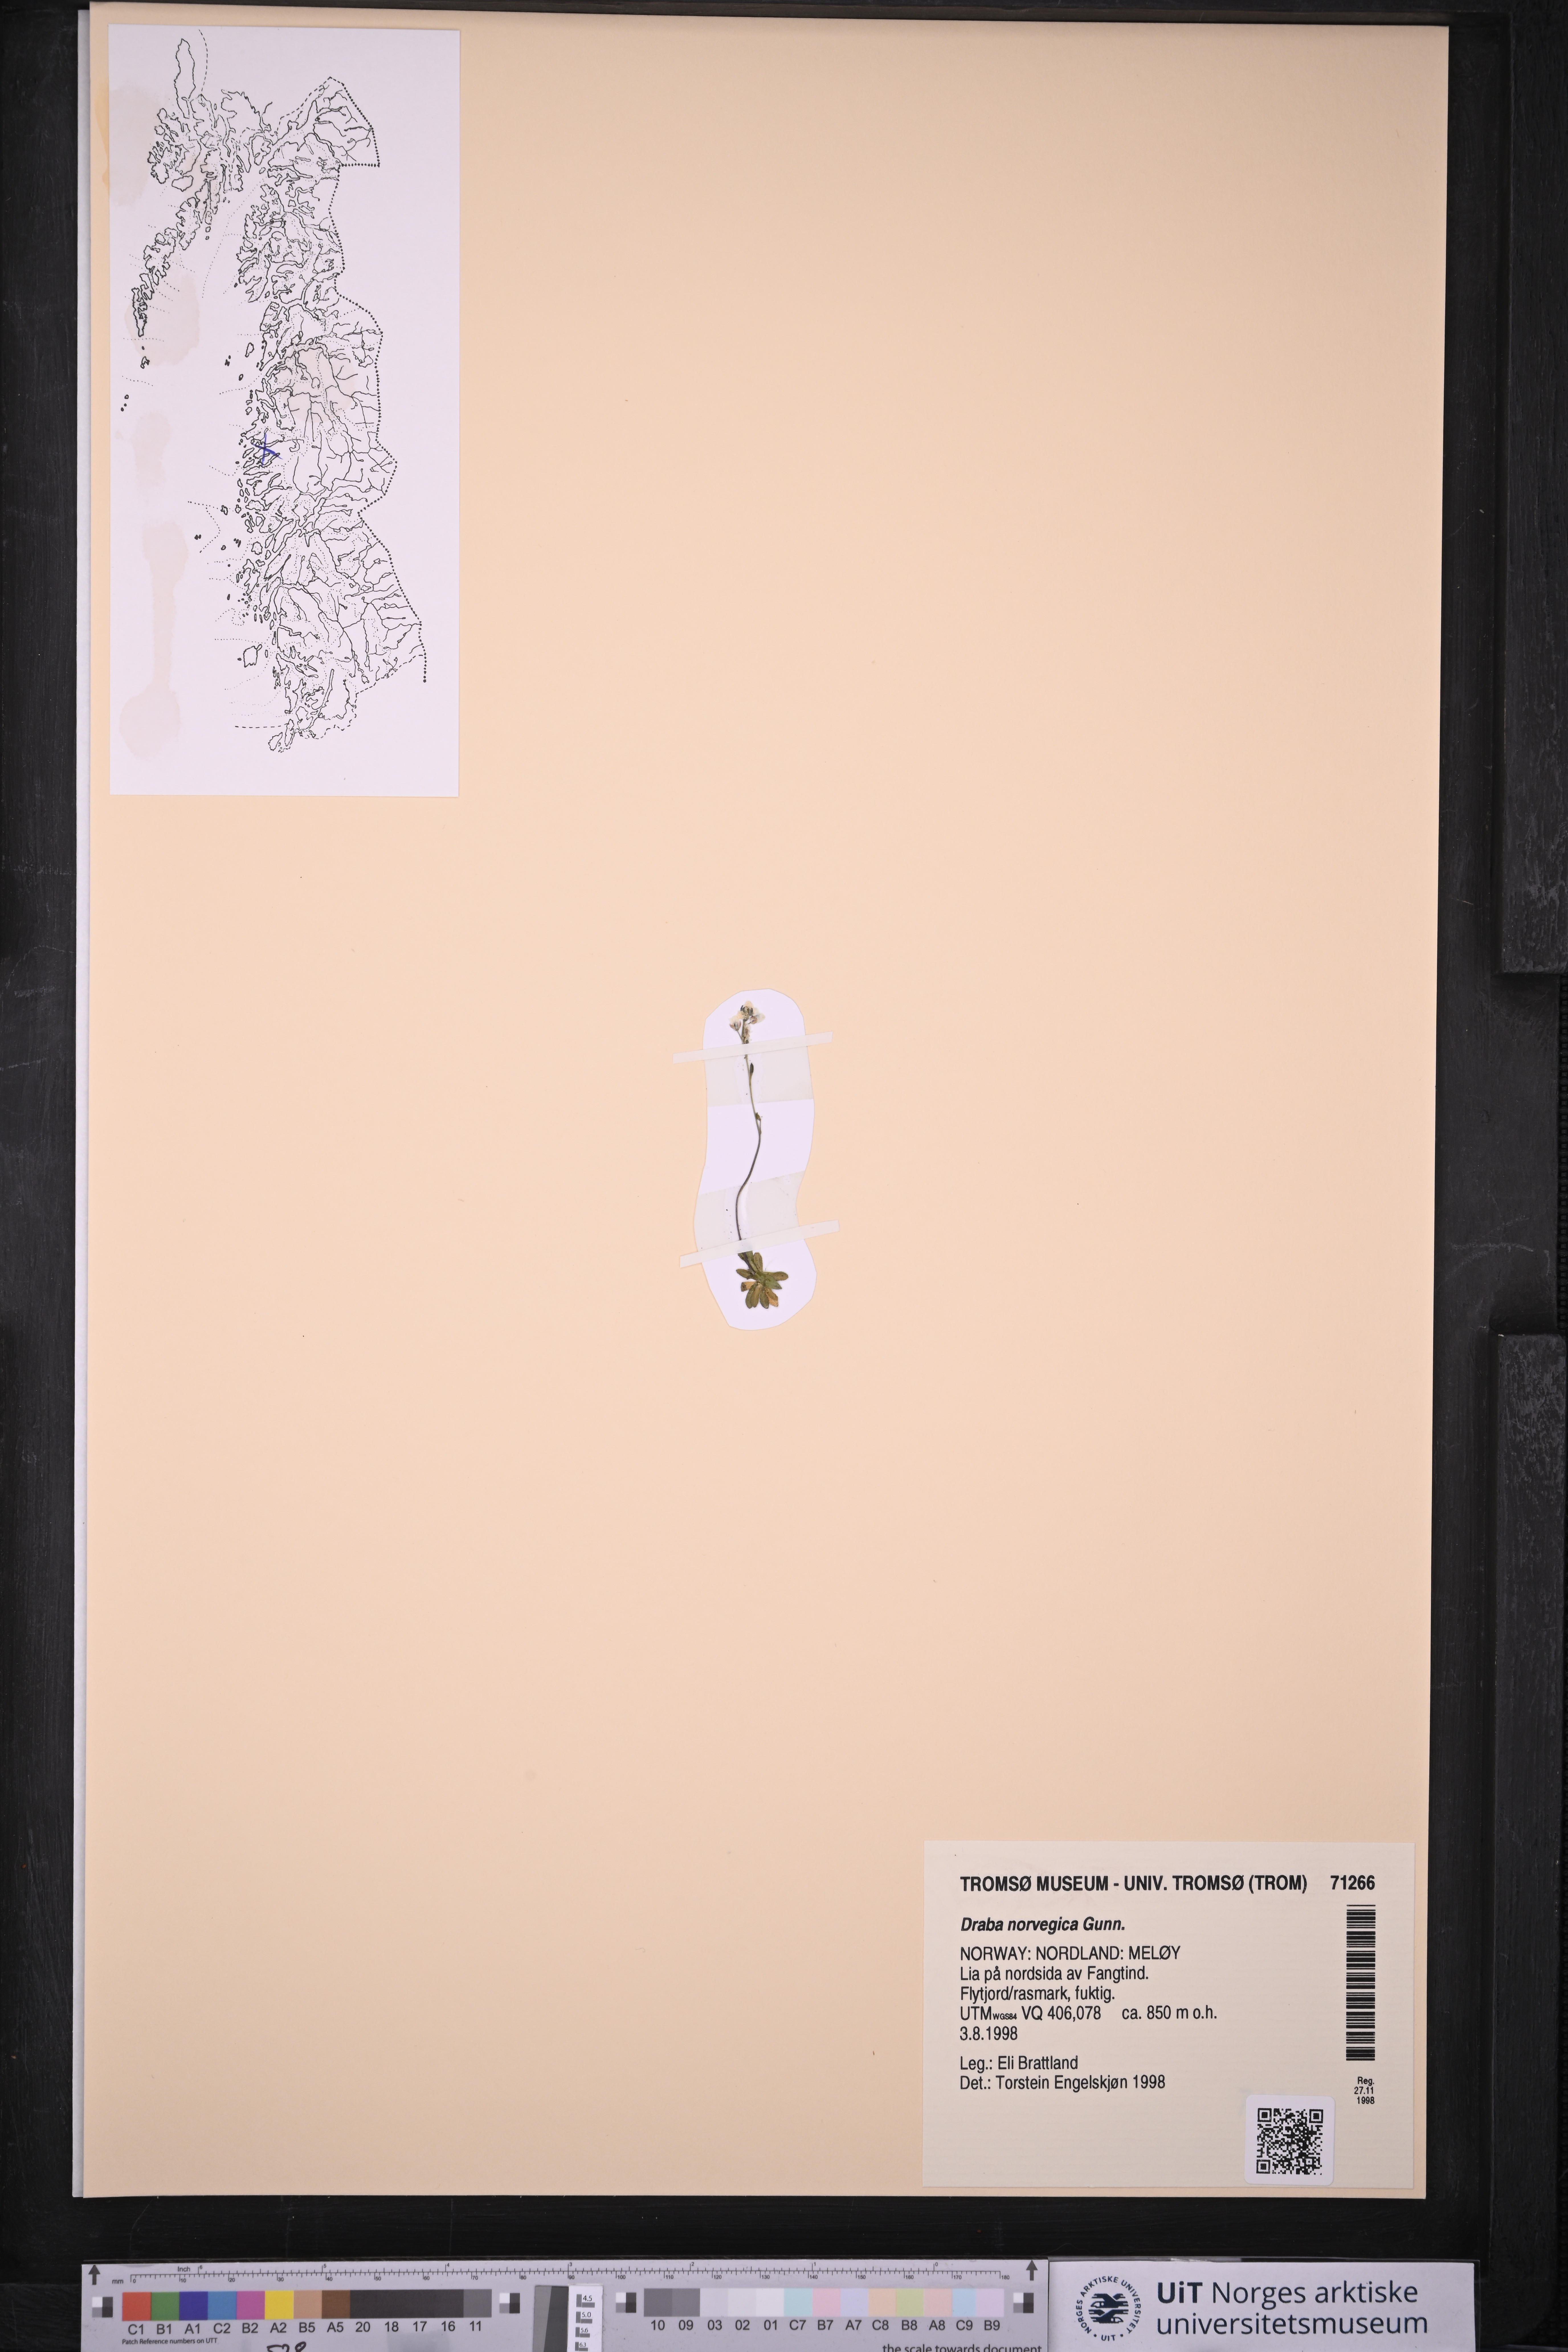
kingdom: Plantae
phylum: Tracheophyta
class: Magnoliopsida
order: Brassicales
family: Brassicaceae
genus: Draba
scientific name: Draba norvegica
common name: Rock whitlowgrass
